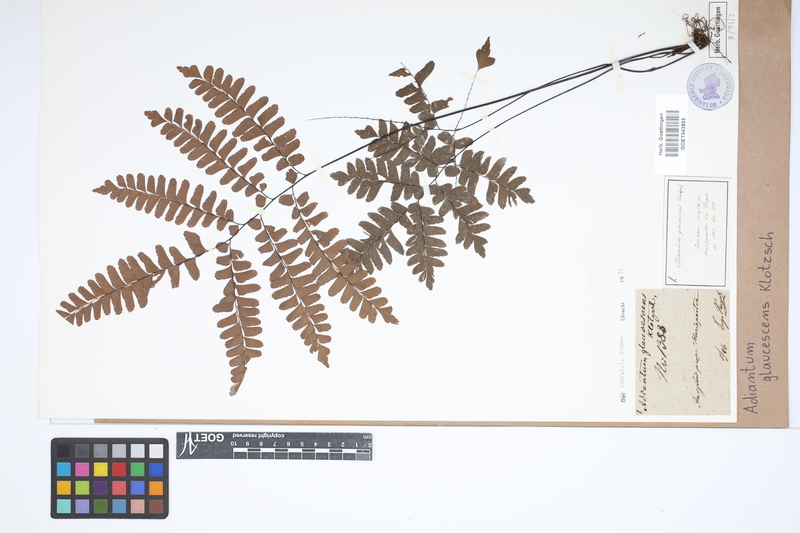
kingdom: Plantae
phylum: Tracheophyta
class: Polypodiopsida
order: Polypodiales
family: Pteridaceae
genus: Adiantum
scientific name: Adiantum glaucescens
